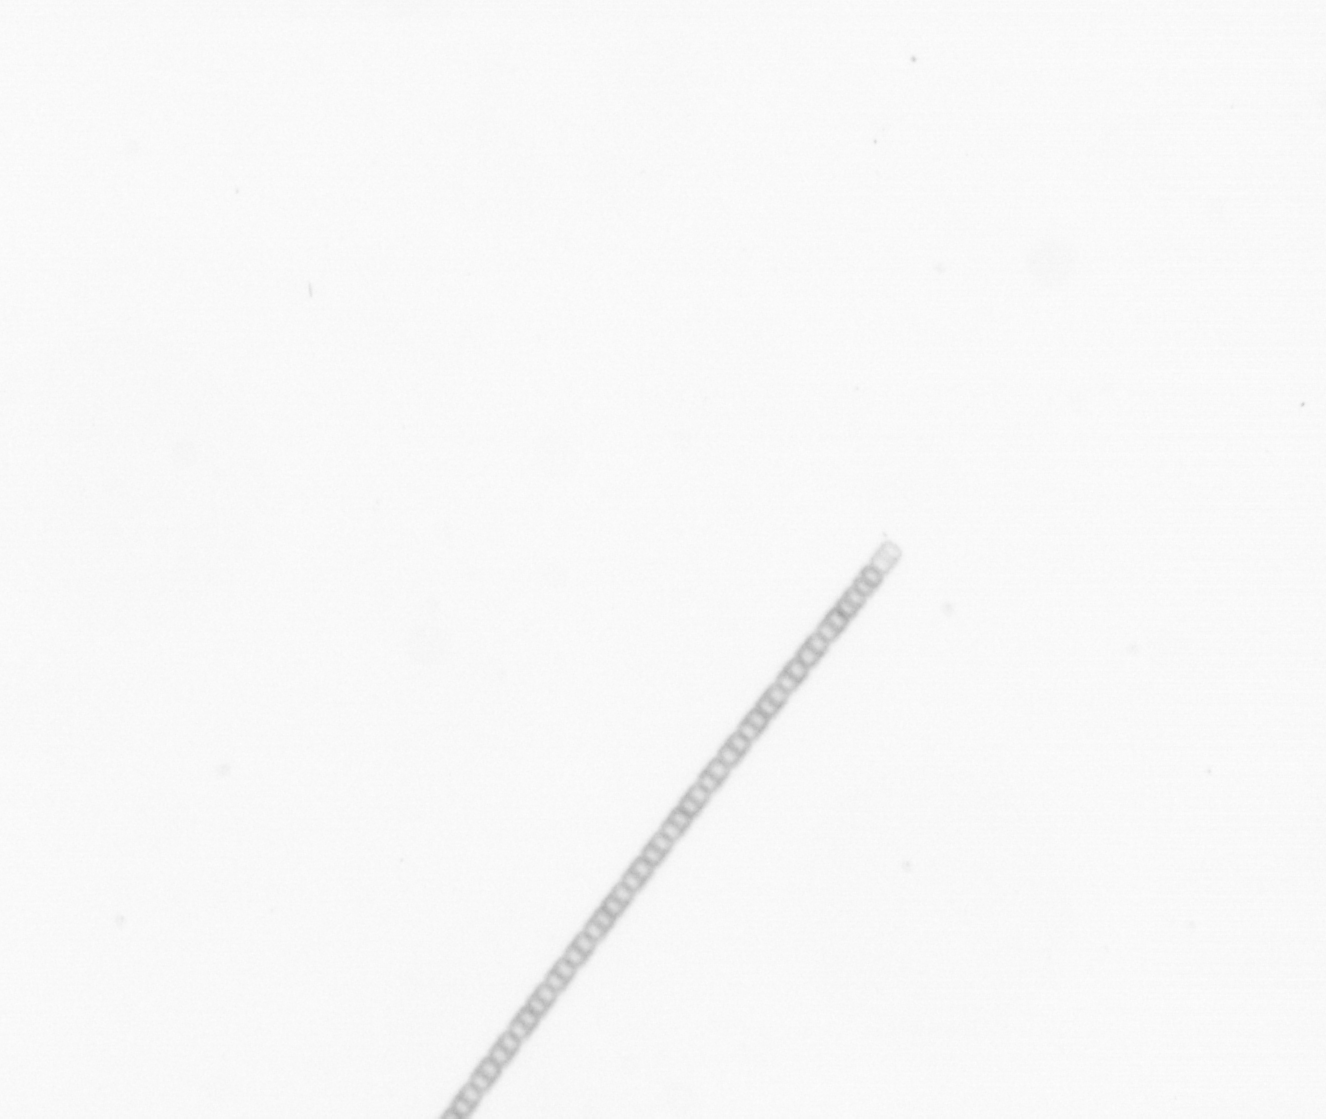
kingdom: Chromista
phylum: Ochrophyta
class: Bacillariophyceae
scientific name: Bacillariophyceae
